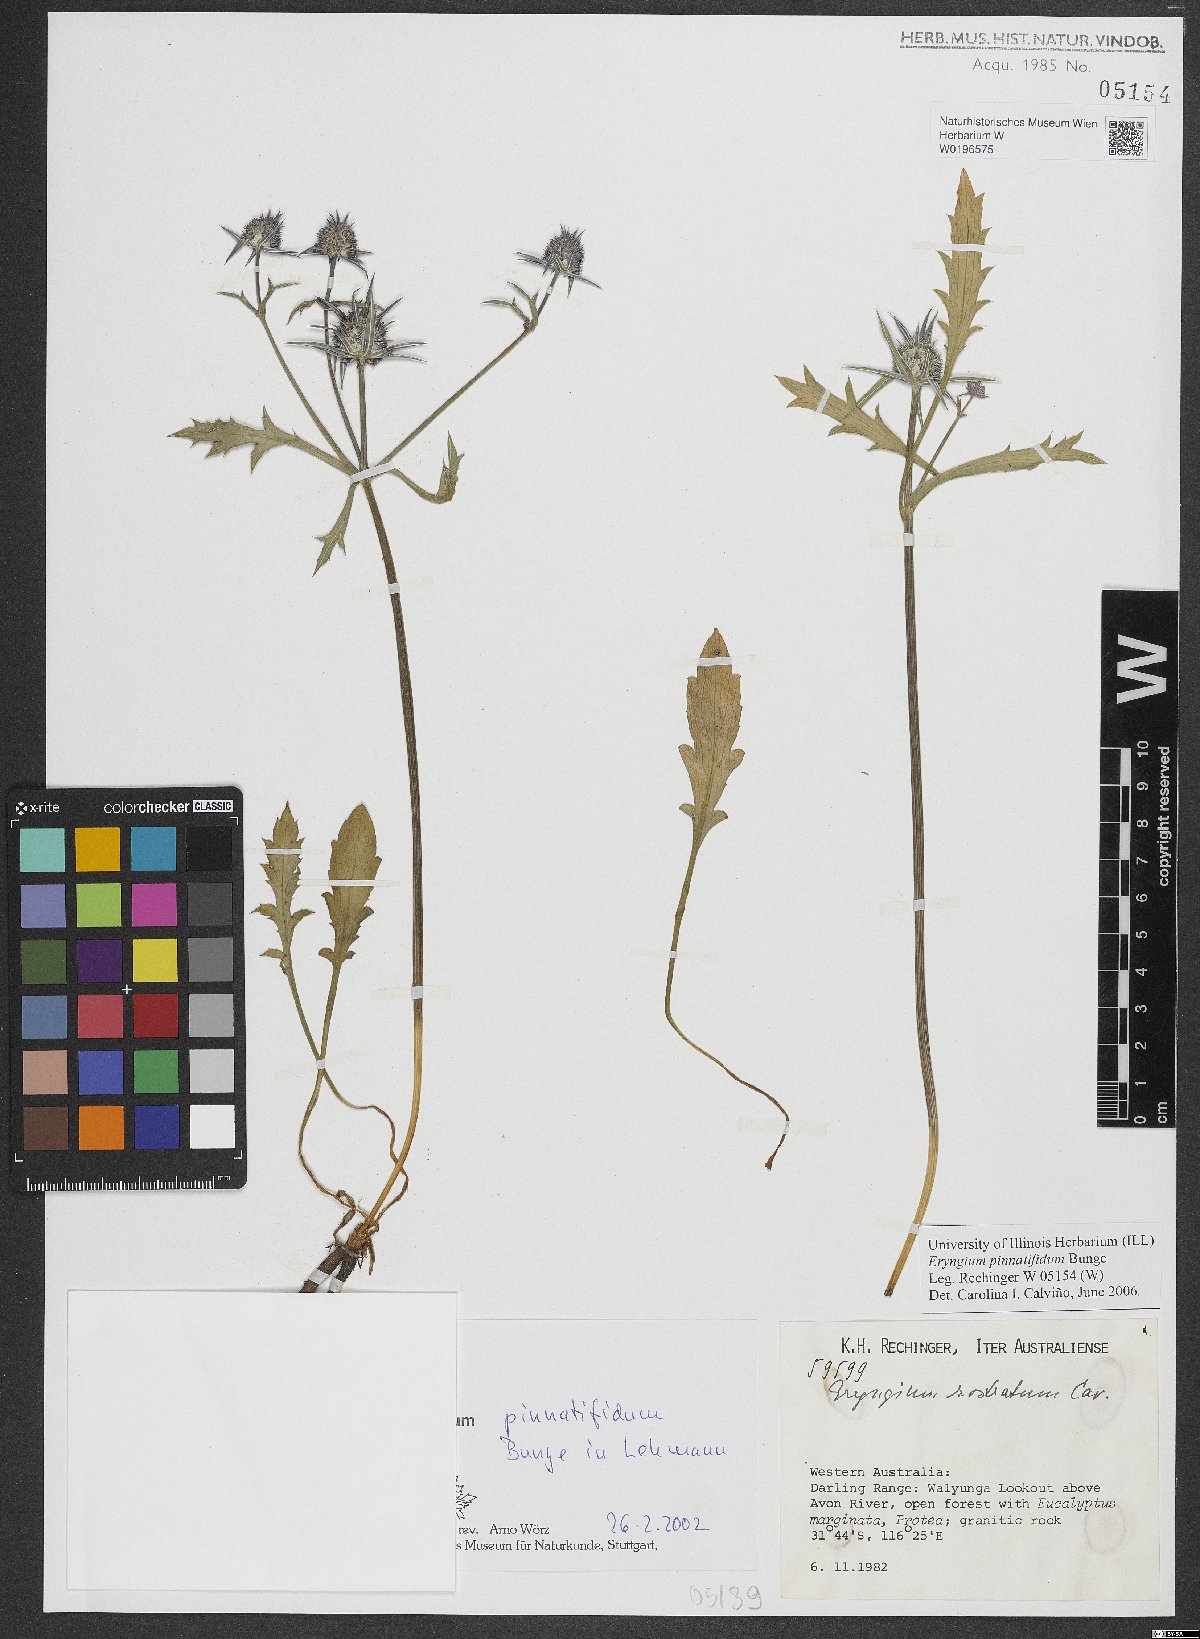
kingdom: Plantae
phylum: Tracheophyta
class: Magnoliopsida
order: Apiales
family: Apiaceae
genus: Eryngium
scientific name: Eryngium pinnatifidum
